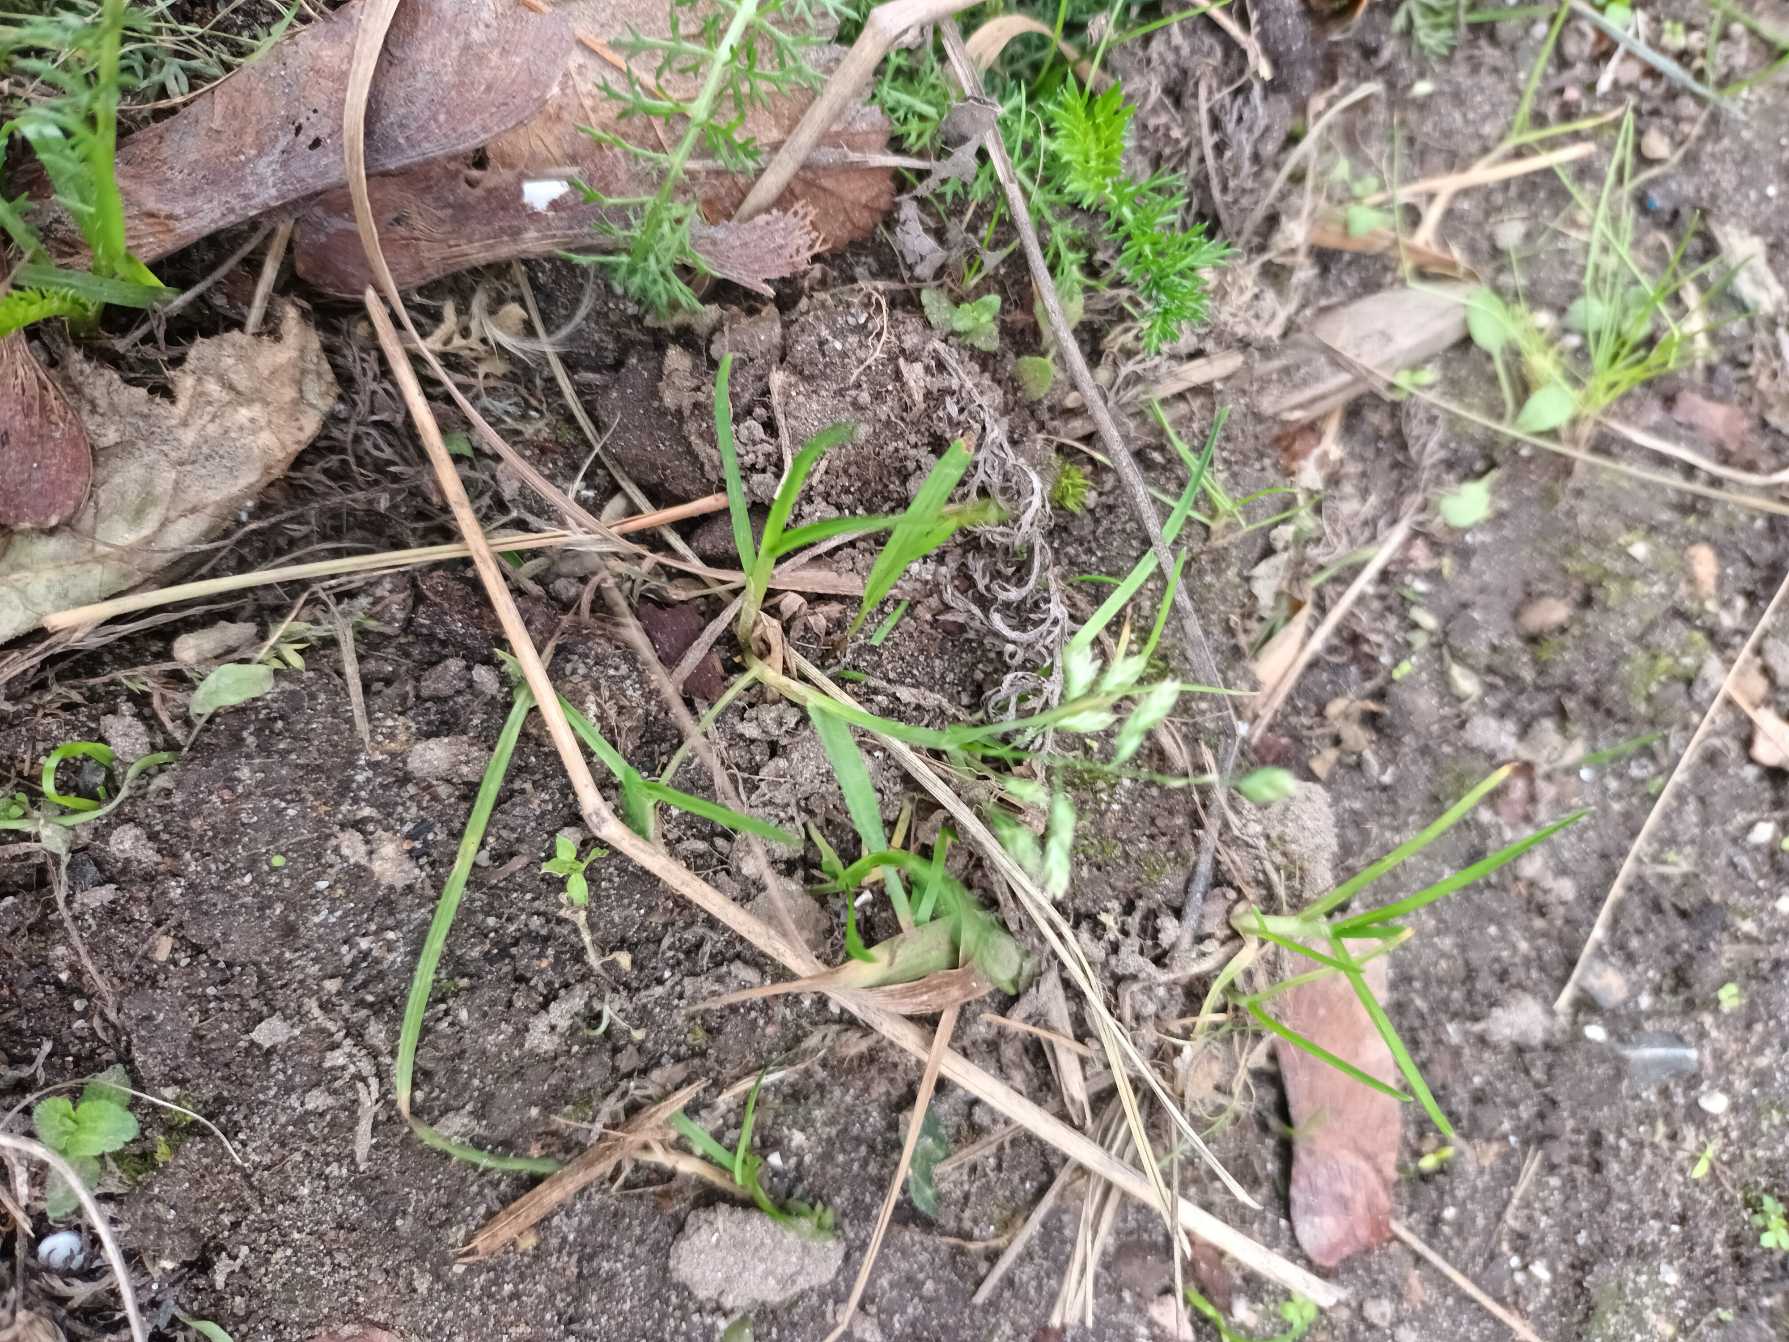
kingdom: Plantae
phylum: Tracheophyta
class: Liliopsida
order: Poales
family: Poaceae
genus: Poa
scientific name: Poa annua
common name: Enårig rapgræs
